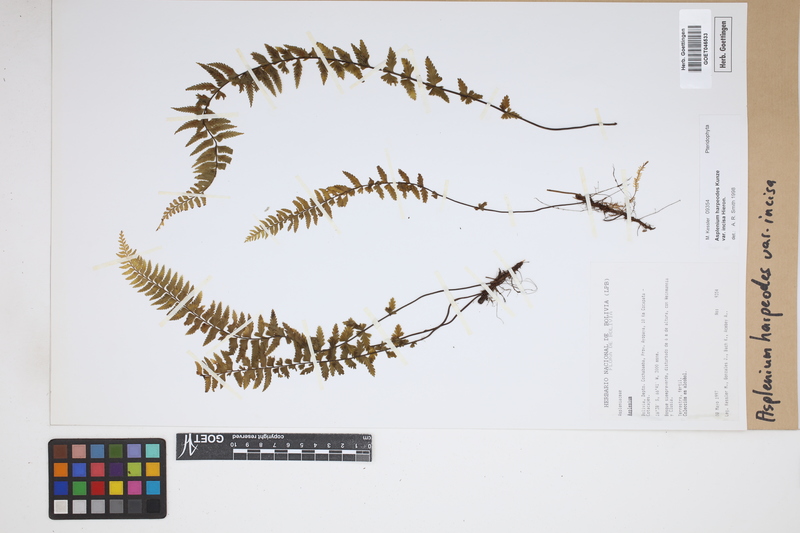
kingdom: Plantae
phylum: Tracheophyta
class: Polypodiopsida
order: Polypodiales
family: Aspleniaceae
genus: Asplenium
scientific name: Asplenium harpeodes
